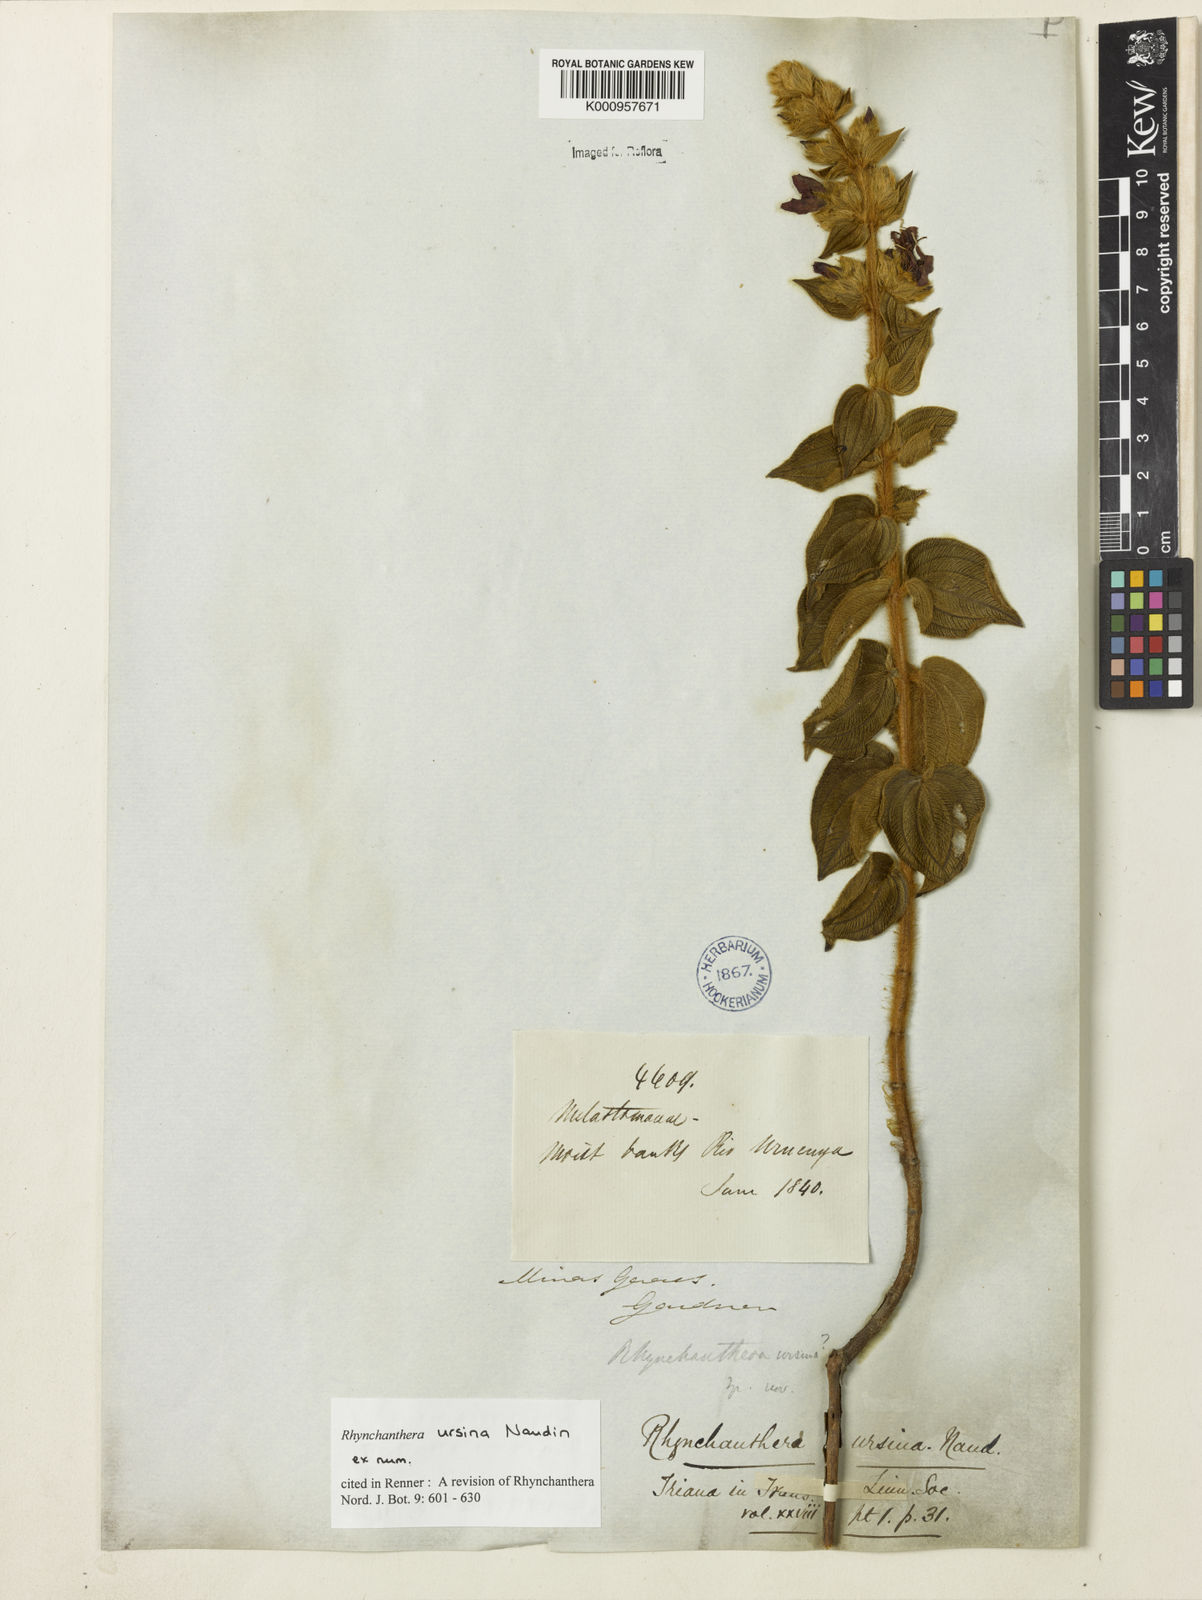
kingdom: Plantae
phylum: Tracheophyta
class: Magnoliopsida
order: Myrtales
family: Melastomataceae
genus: Rhynchanthera
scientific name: Rhynchanthera ursina
